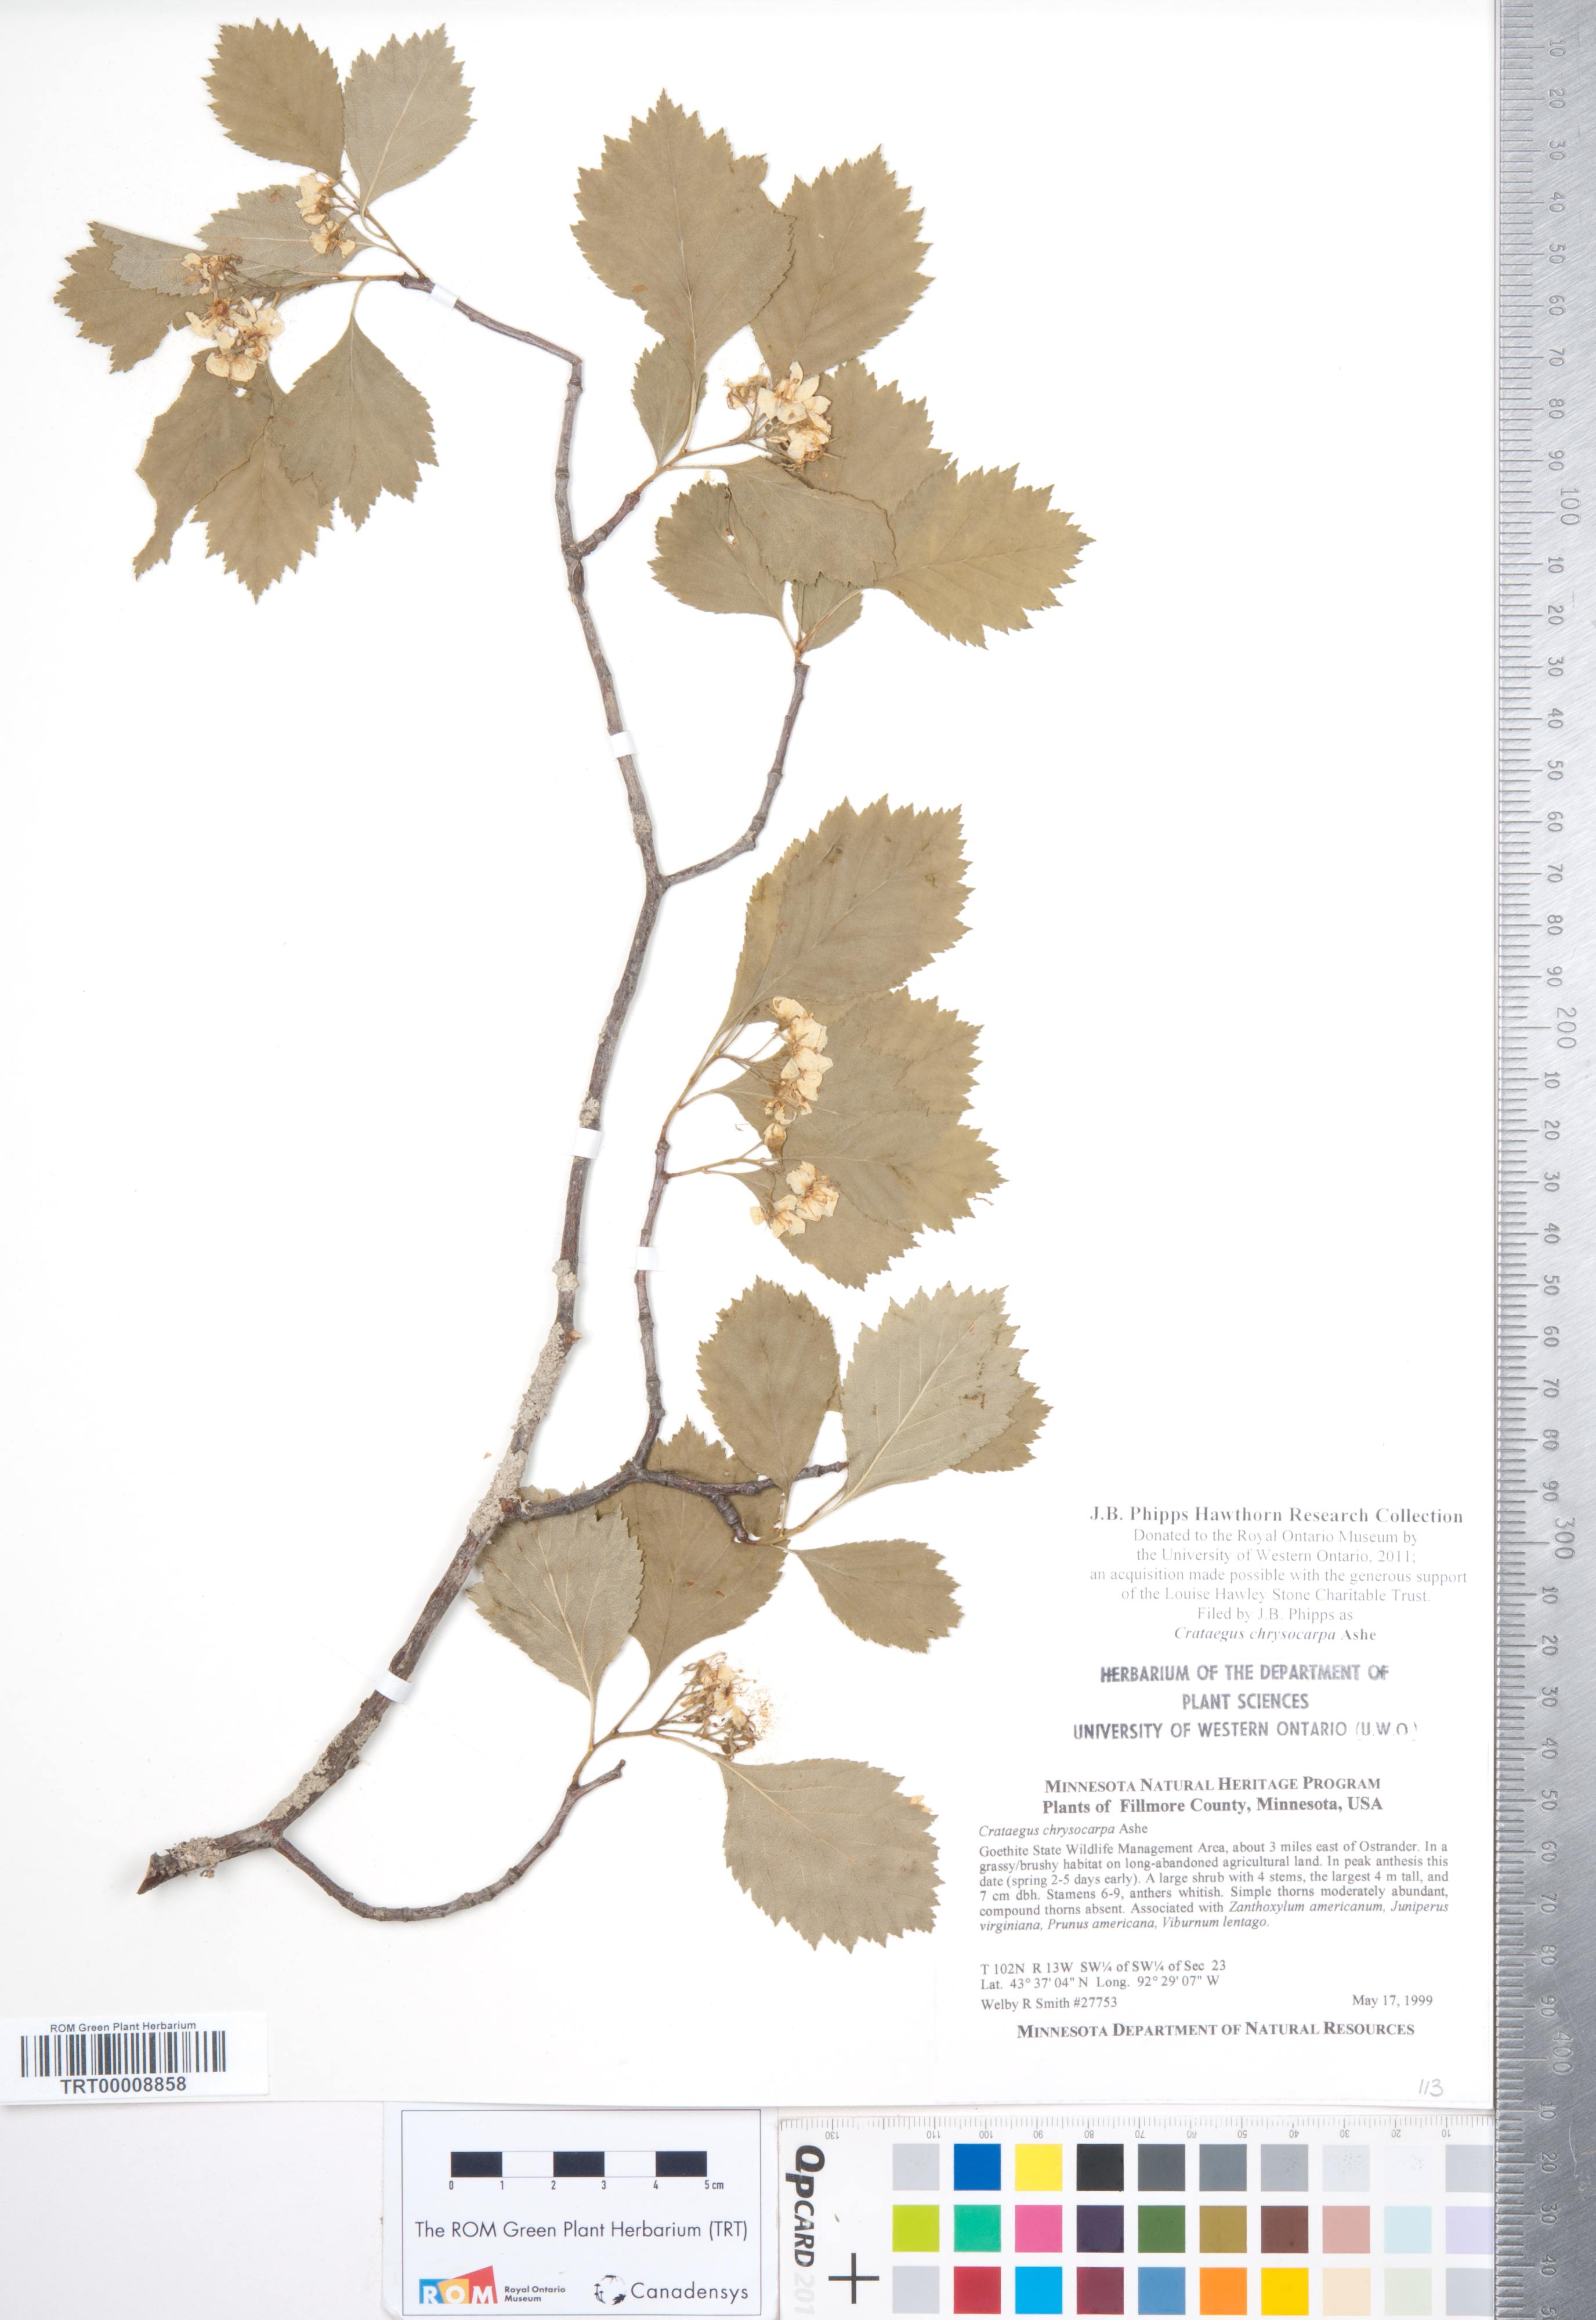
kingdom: Plantae
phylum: Tracheophyta
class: Magnoliopsida
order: Rosales
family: Rosaceae
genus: Crataegus
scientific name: Crataegus chrysocarpa
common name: Fire-berry hawthorn
